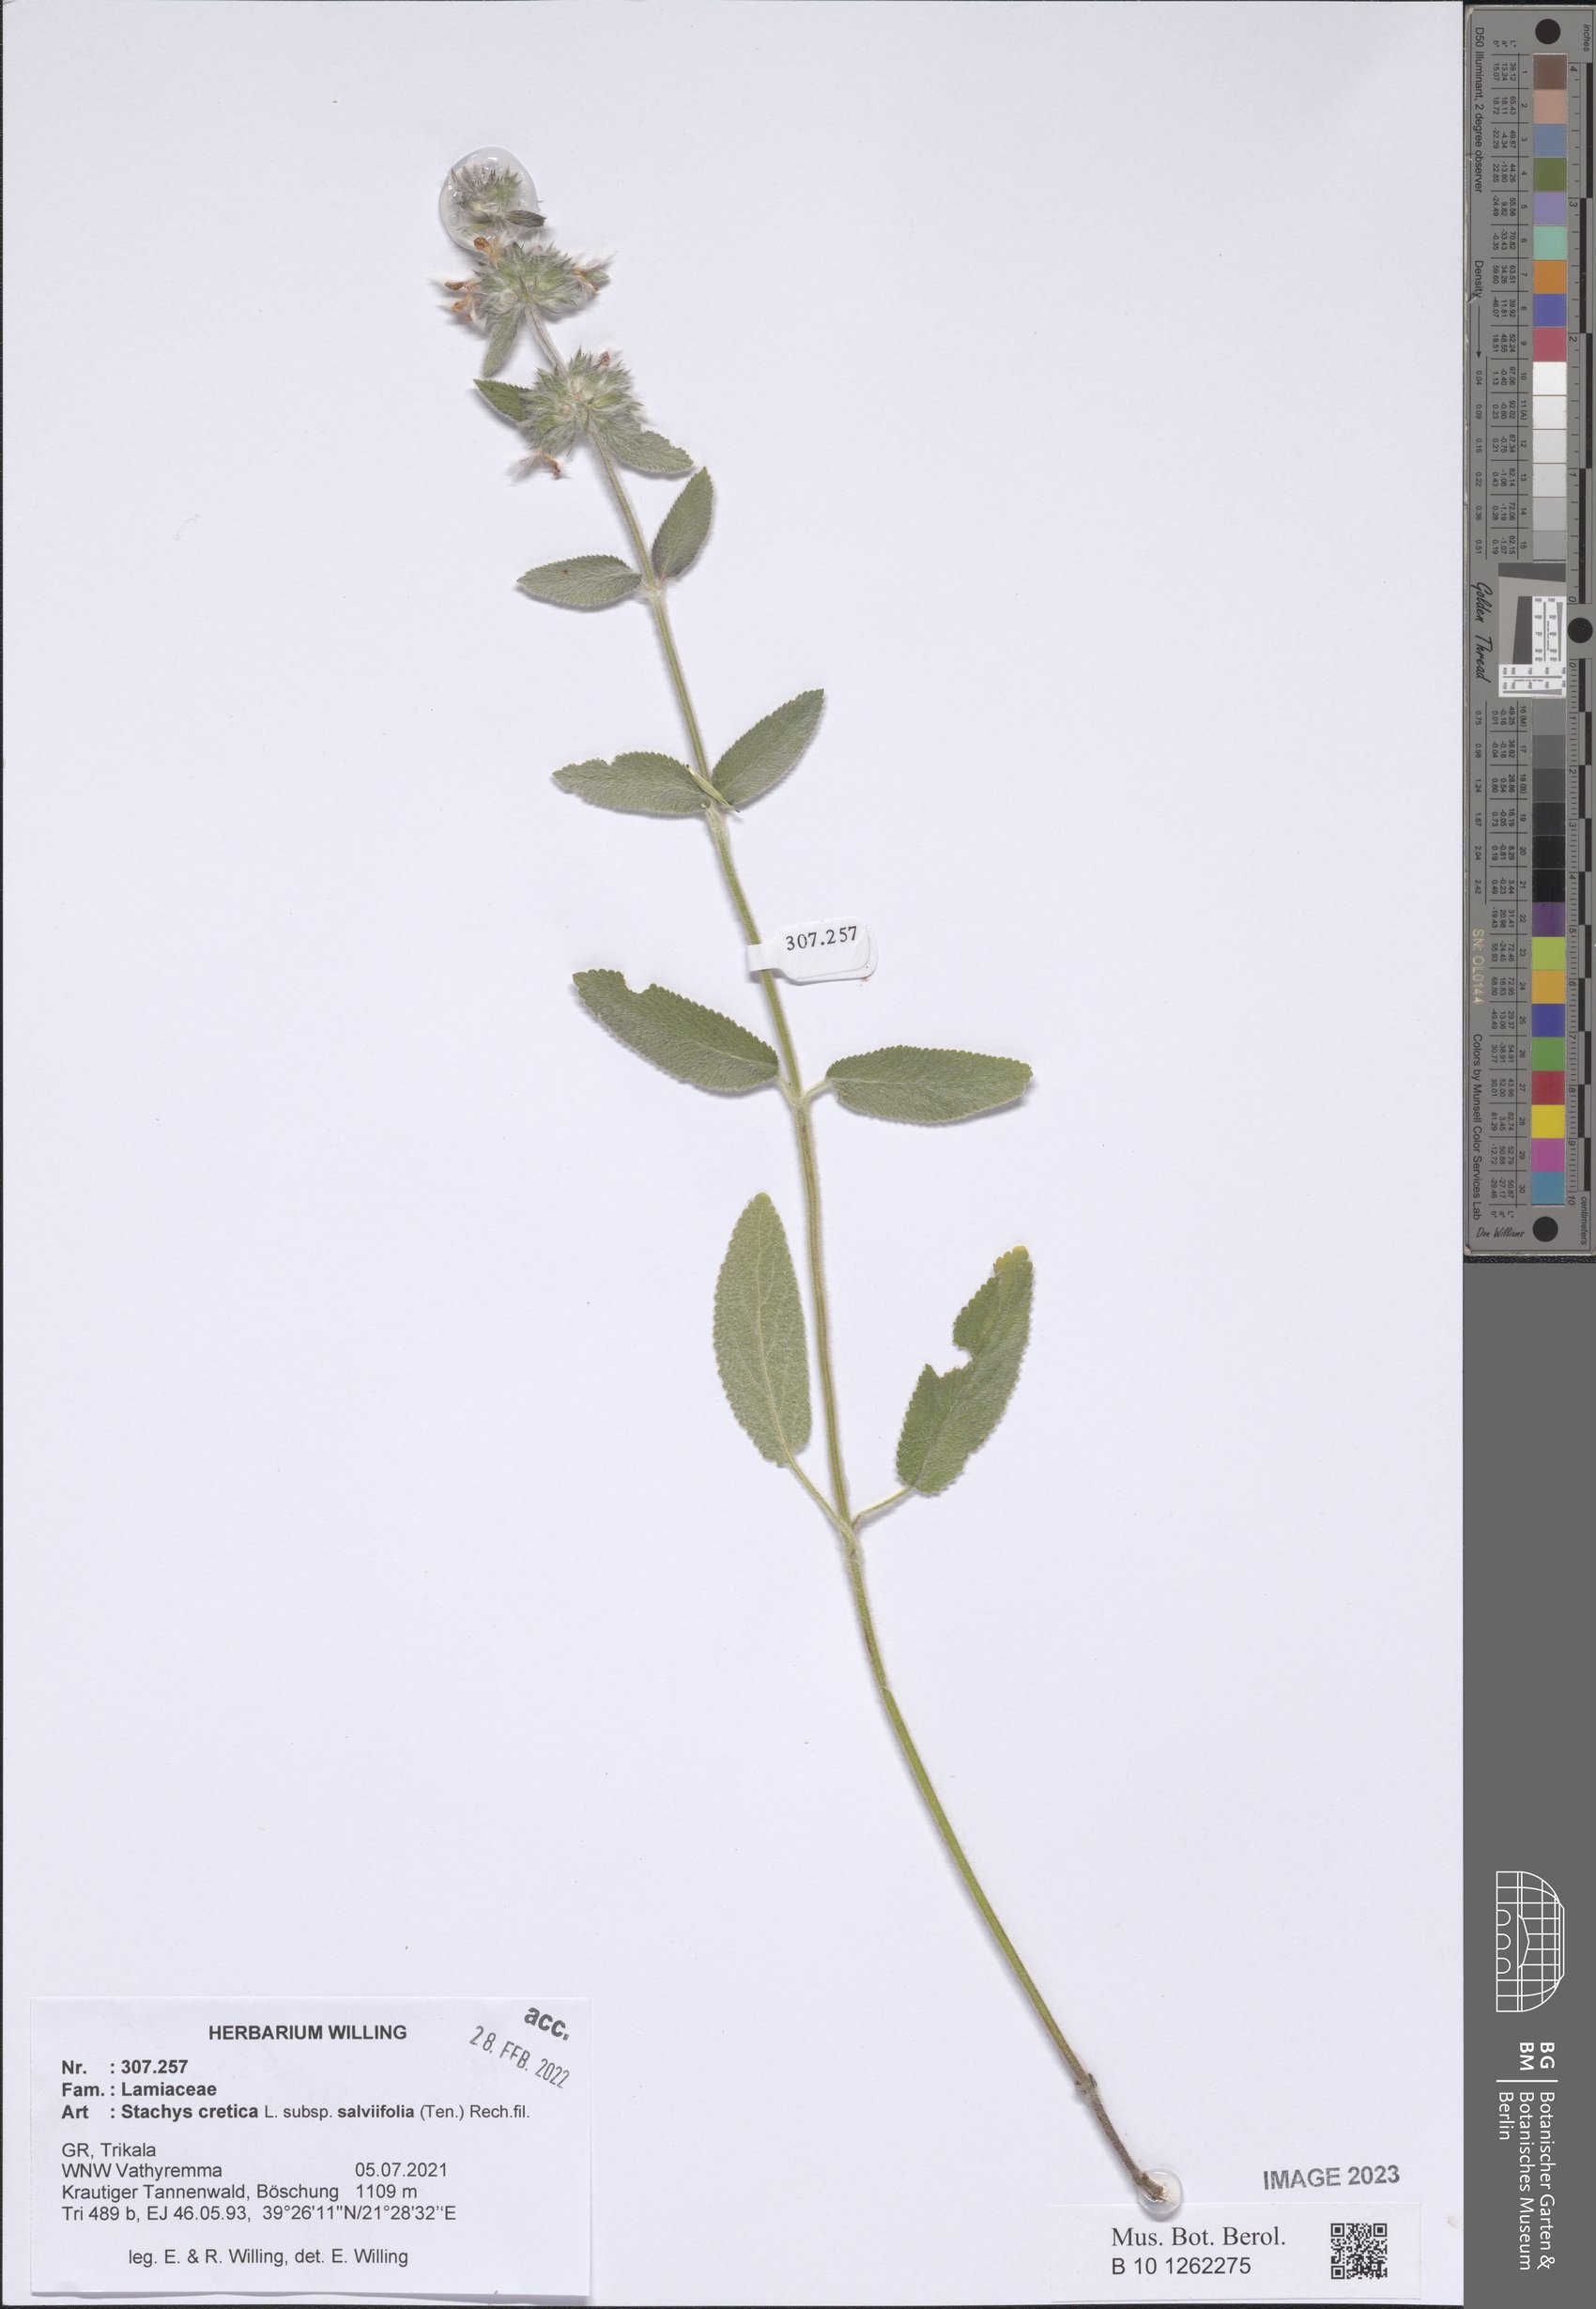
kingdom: Plantae
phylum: Tracheophyta
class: Magnoliopsida
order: Lamiales
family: Lamiaceae
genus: Stachys
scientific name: Stachys cretica
